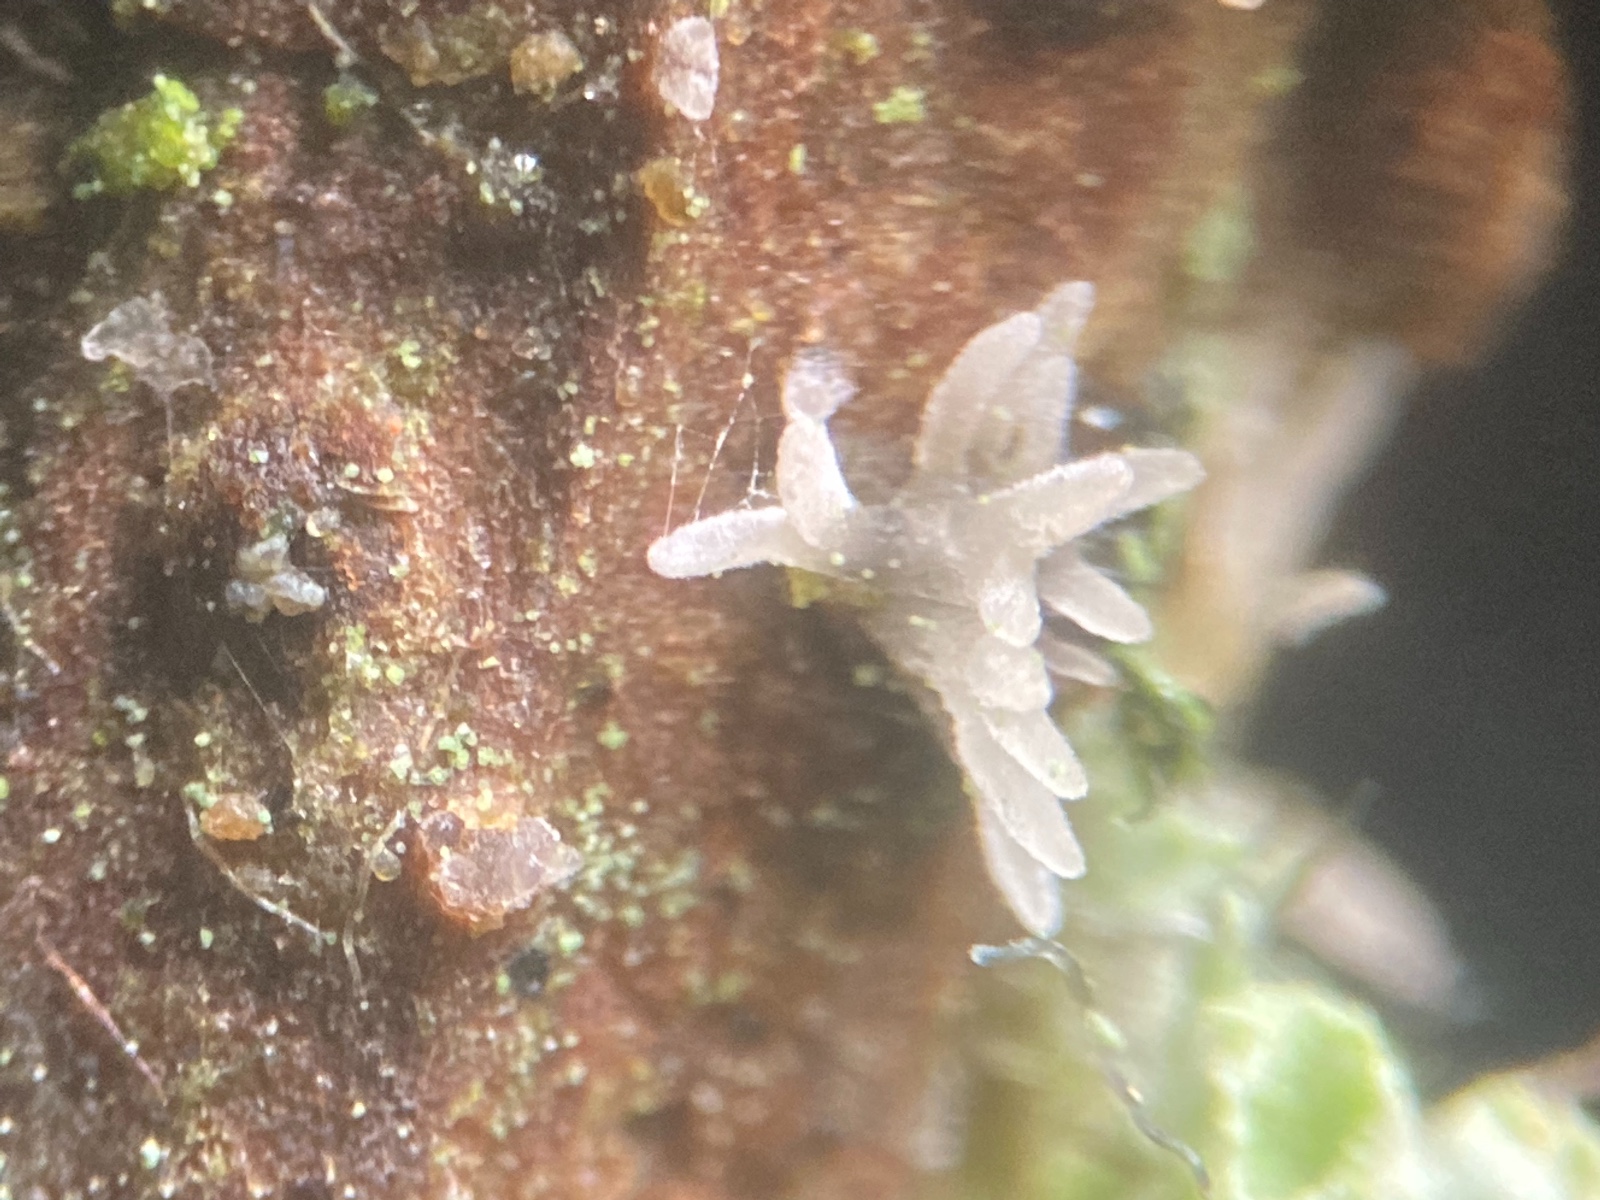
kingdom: Fungi
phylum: Ascomycota
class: Sordariomycetes
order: Hypocreales
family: Cordycipitaceae
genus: Isaria
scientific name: Isaria friesii
